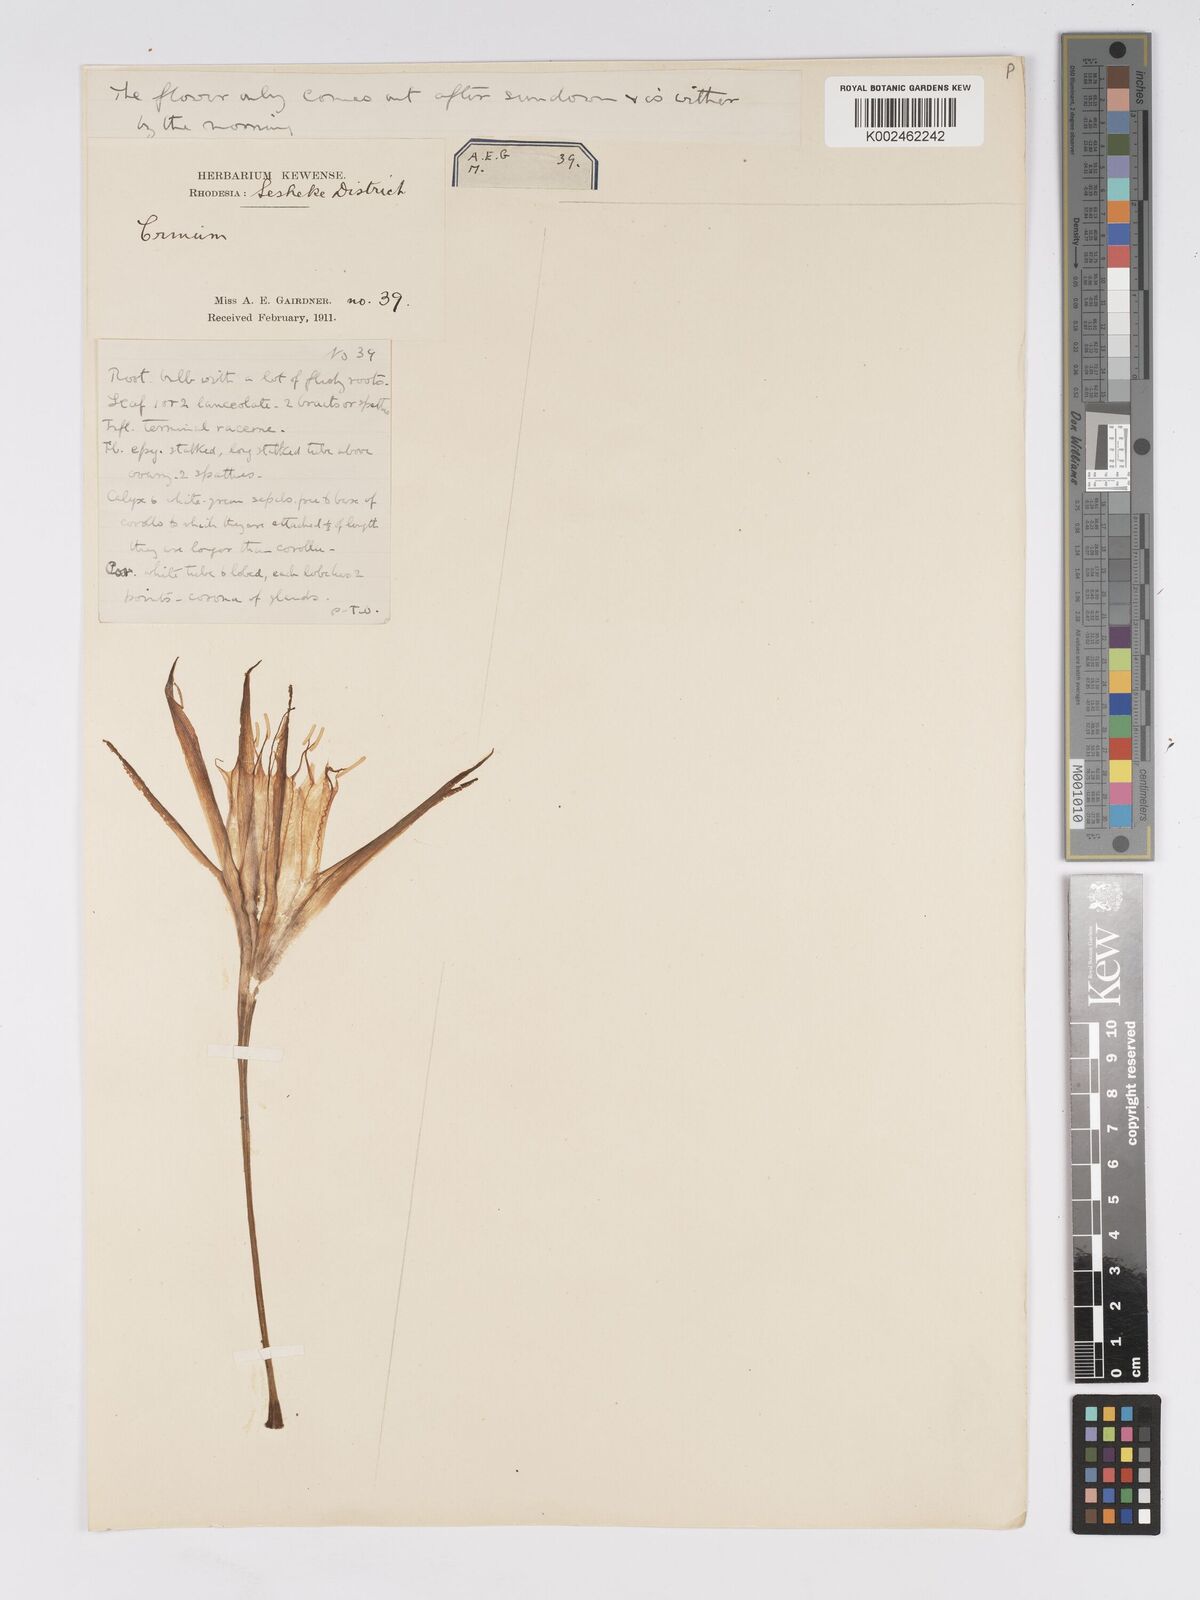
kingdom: Plantae
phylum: Tracheophyta
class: Liliopsida
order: Asparagales
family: Amaryllidaceae
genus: Pancratium
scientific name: Pancratium trianthum
